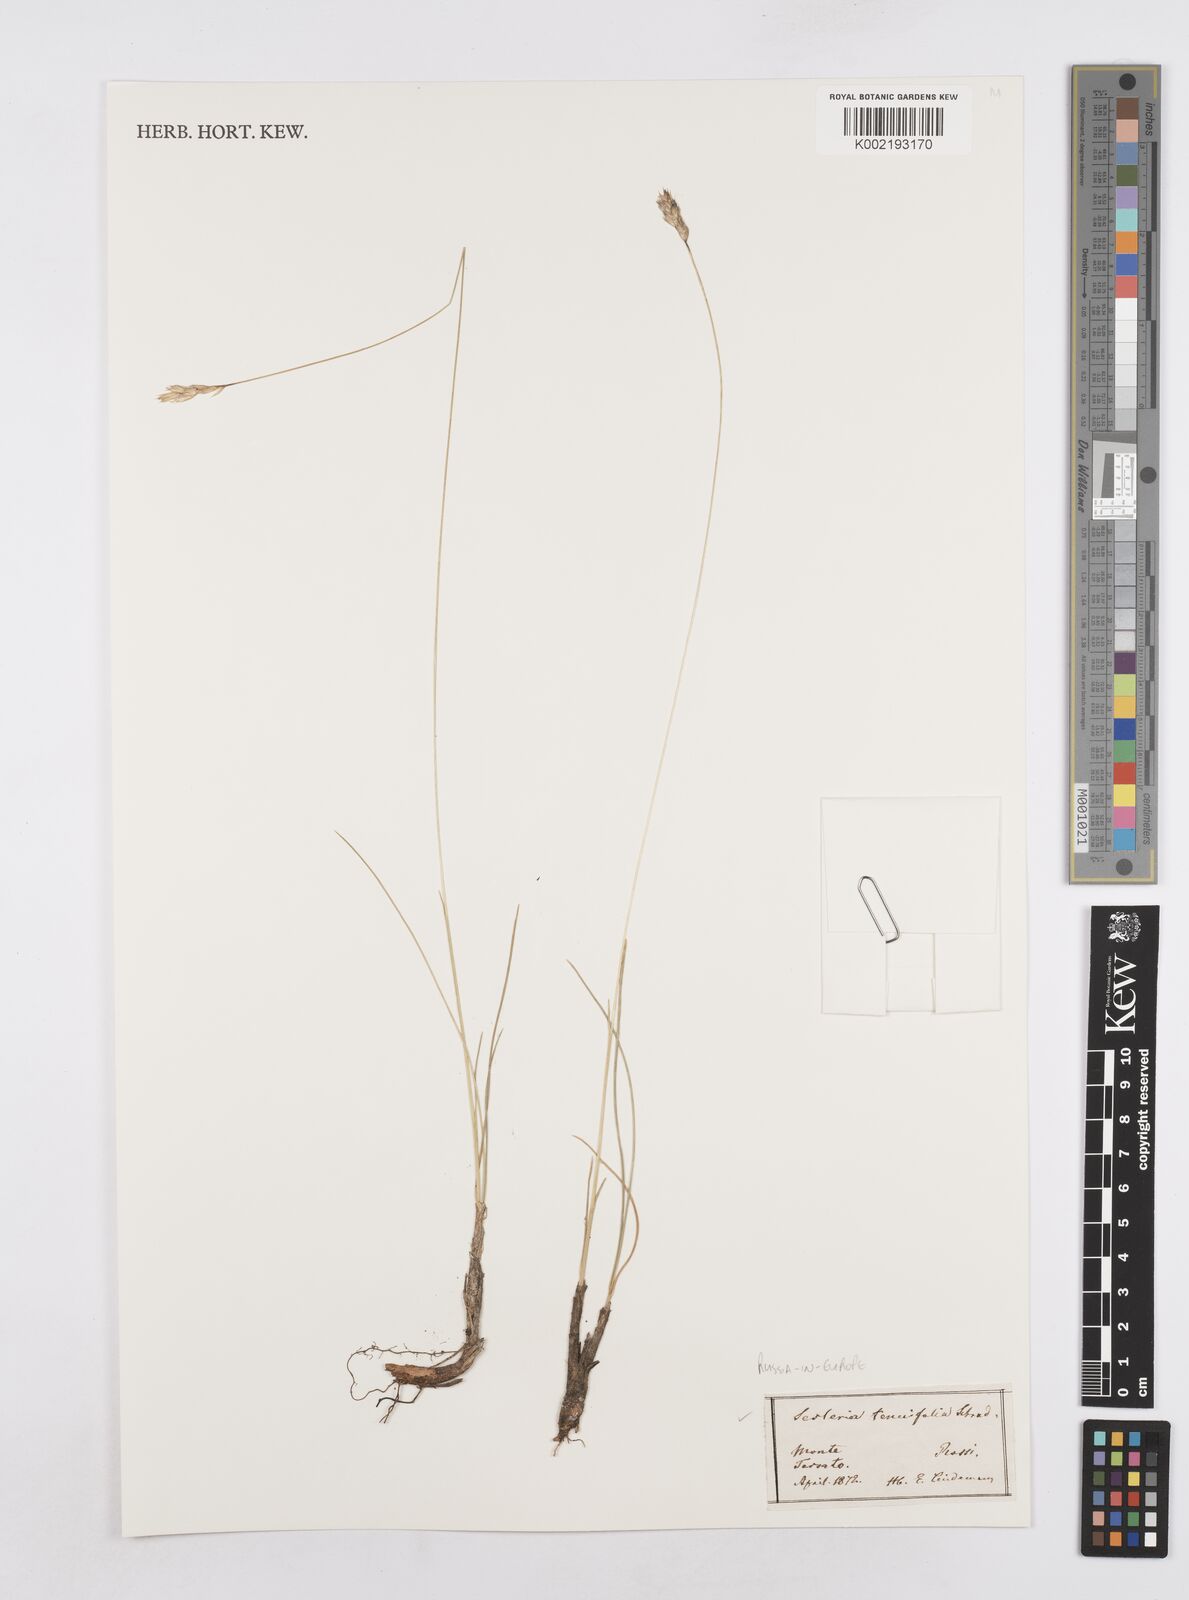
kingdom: Plantae
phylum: Tracheophyta
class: Liliopsida
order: Poales
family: Poaceae
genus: Sesleria
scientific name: Sesleria juncifolia
